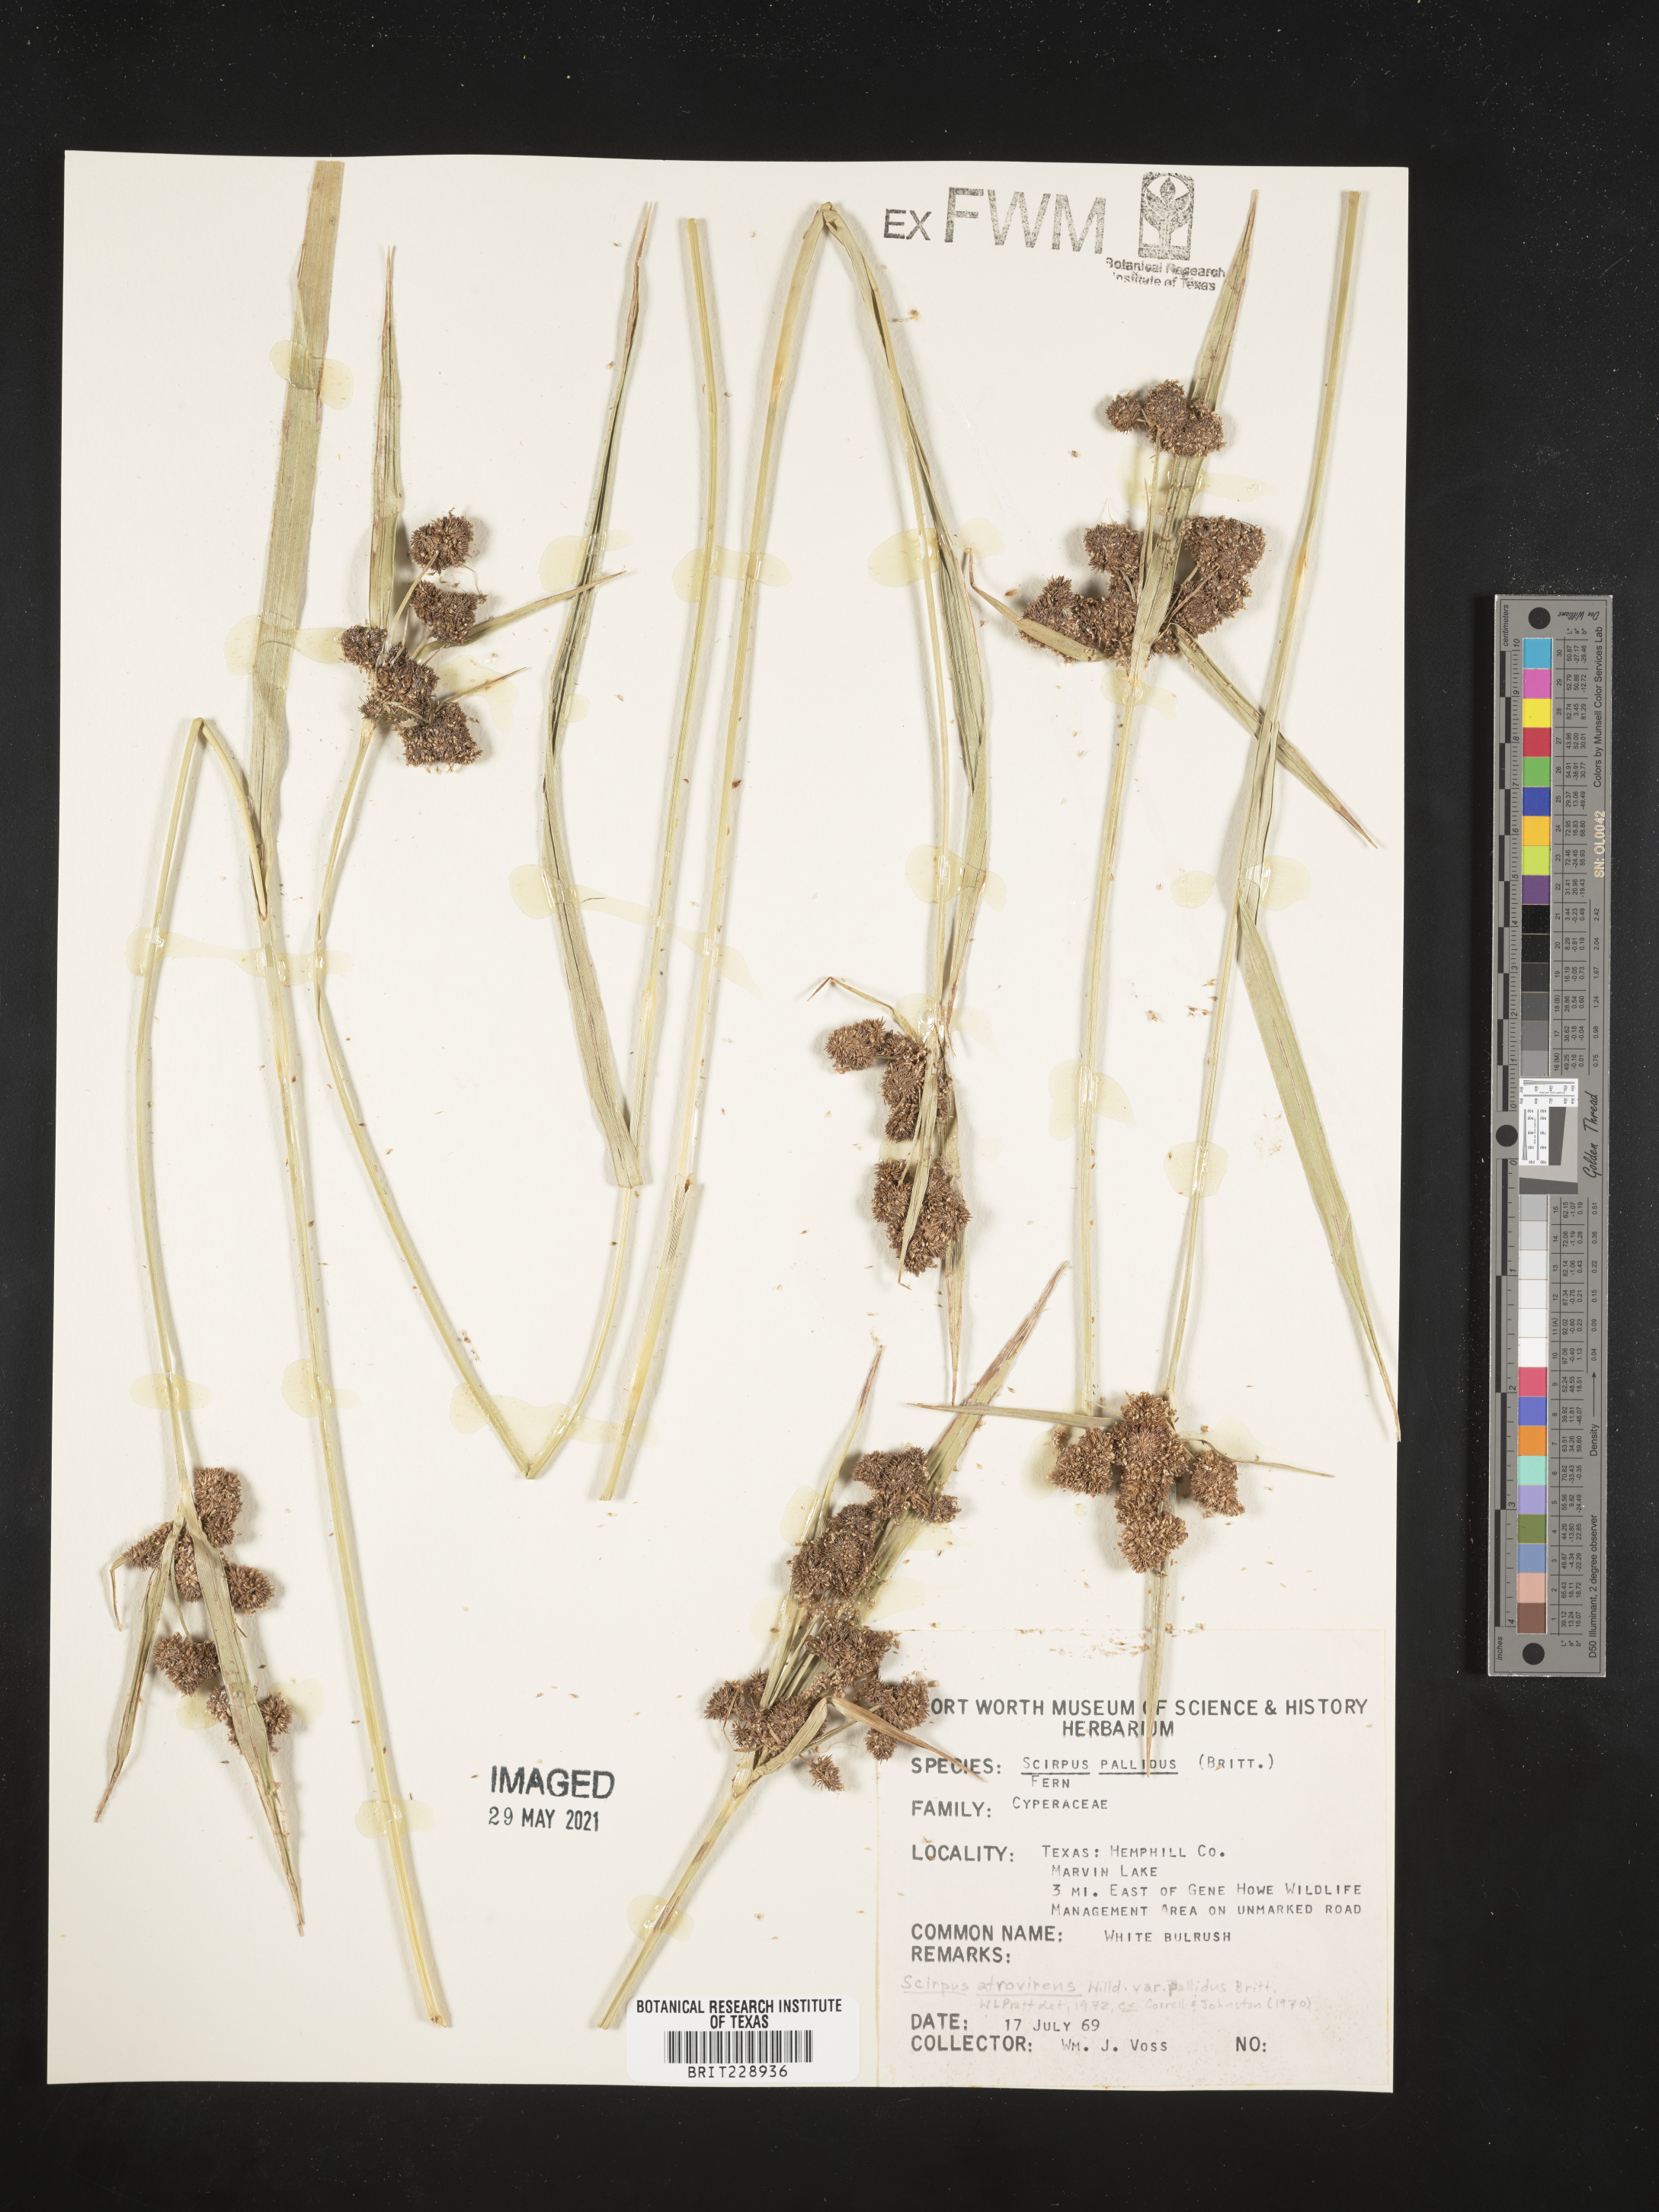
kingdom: Plantae
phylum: Tracheophyta
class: Liliopsida
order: Poales
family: Cyperaceae
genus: Scirpus
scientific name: Scirpus pallidus
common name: Cloaked bulrush
